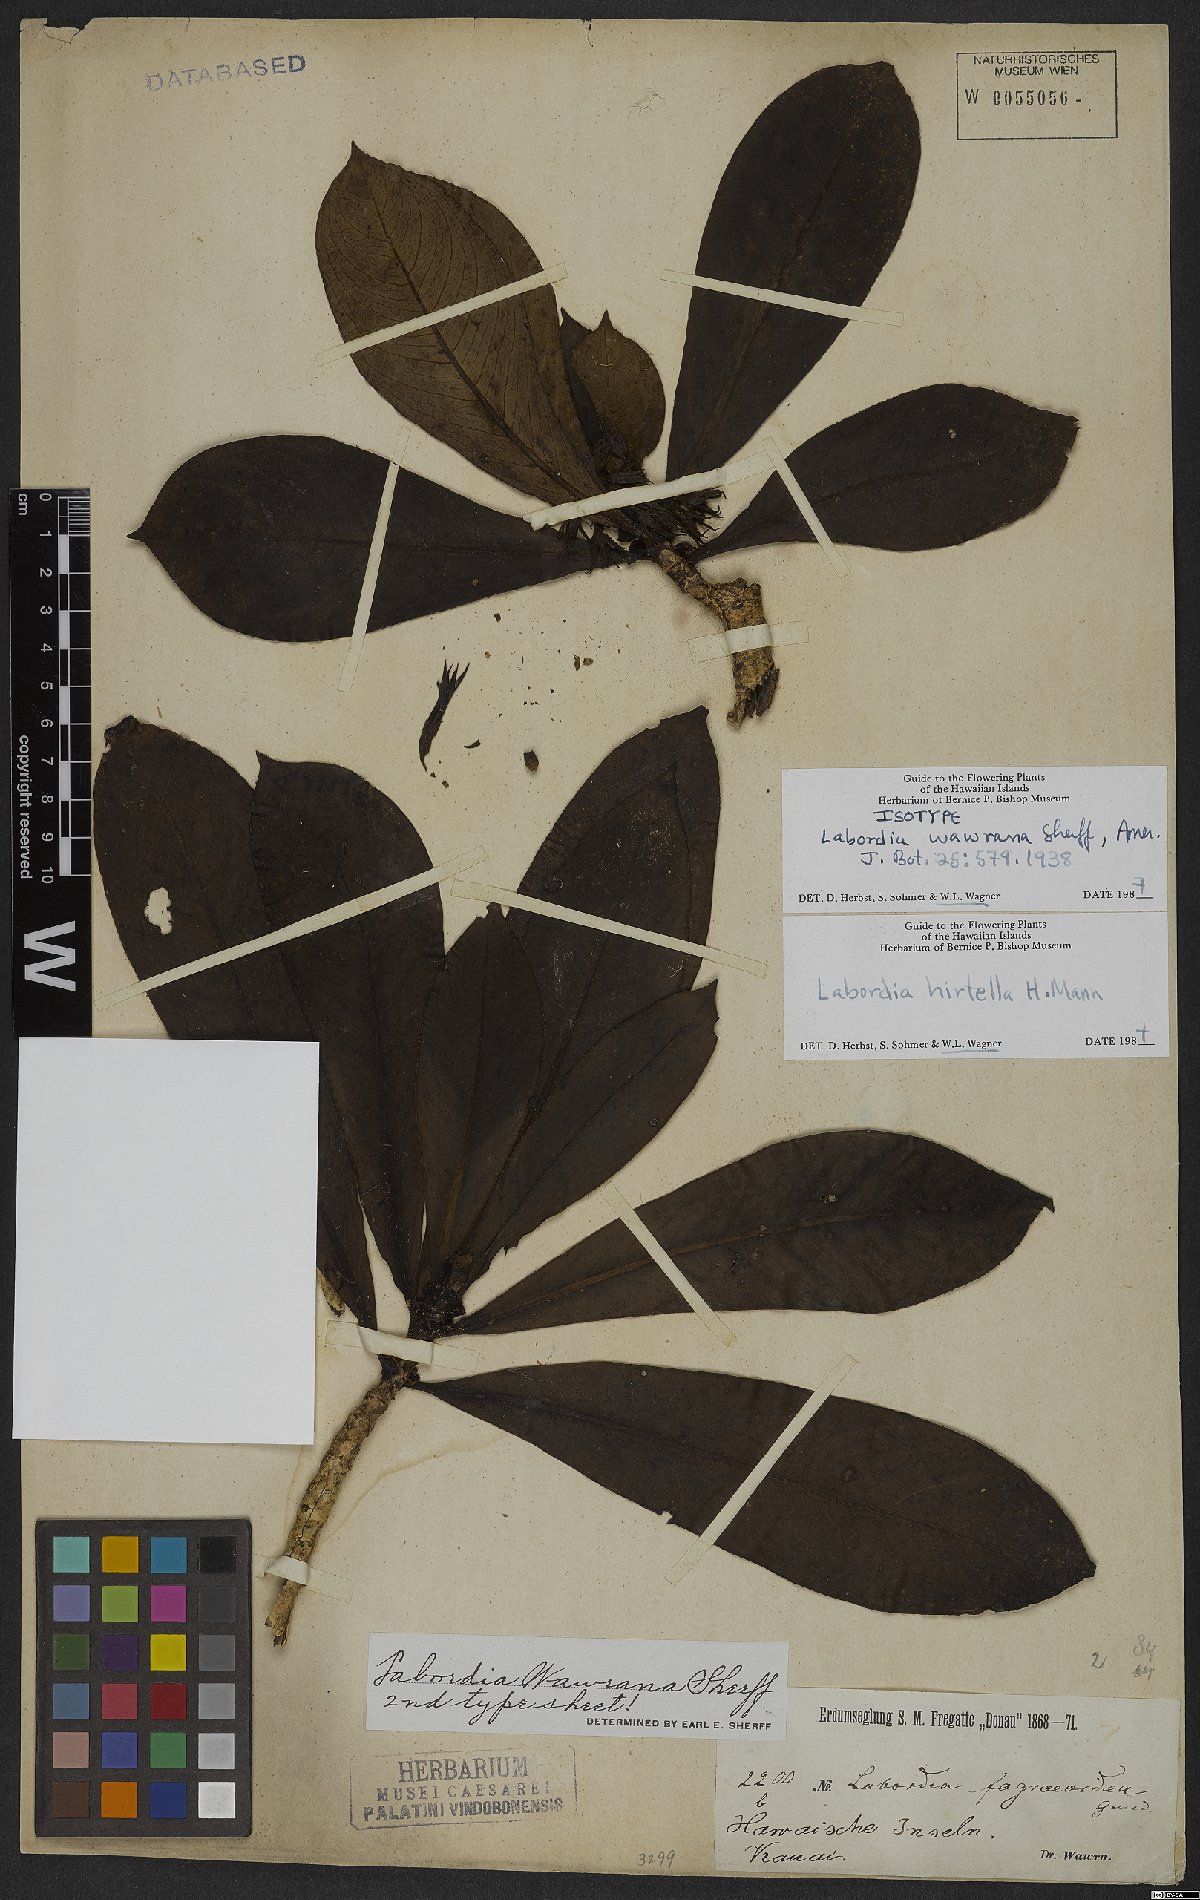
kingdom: Plantae
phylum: Tracheophyta
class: Magnoliopsida
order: Gentianales
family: Loganiaceae
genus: Geniostoma
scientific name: Geniostoma hirtellum
